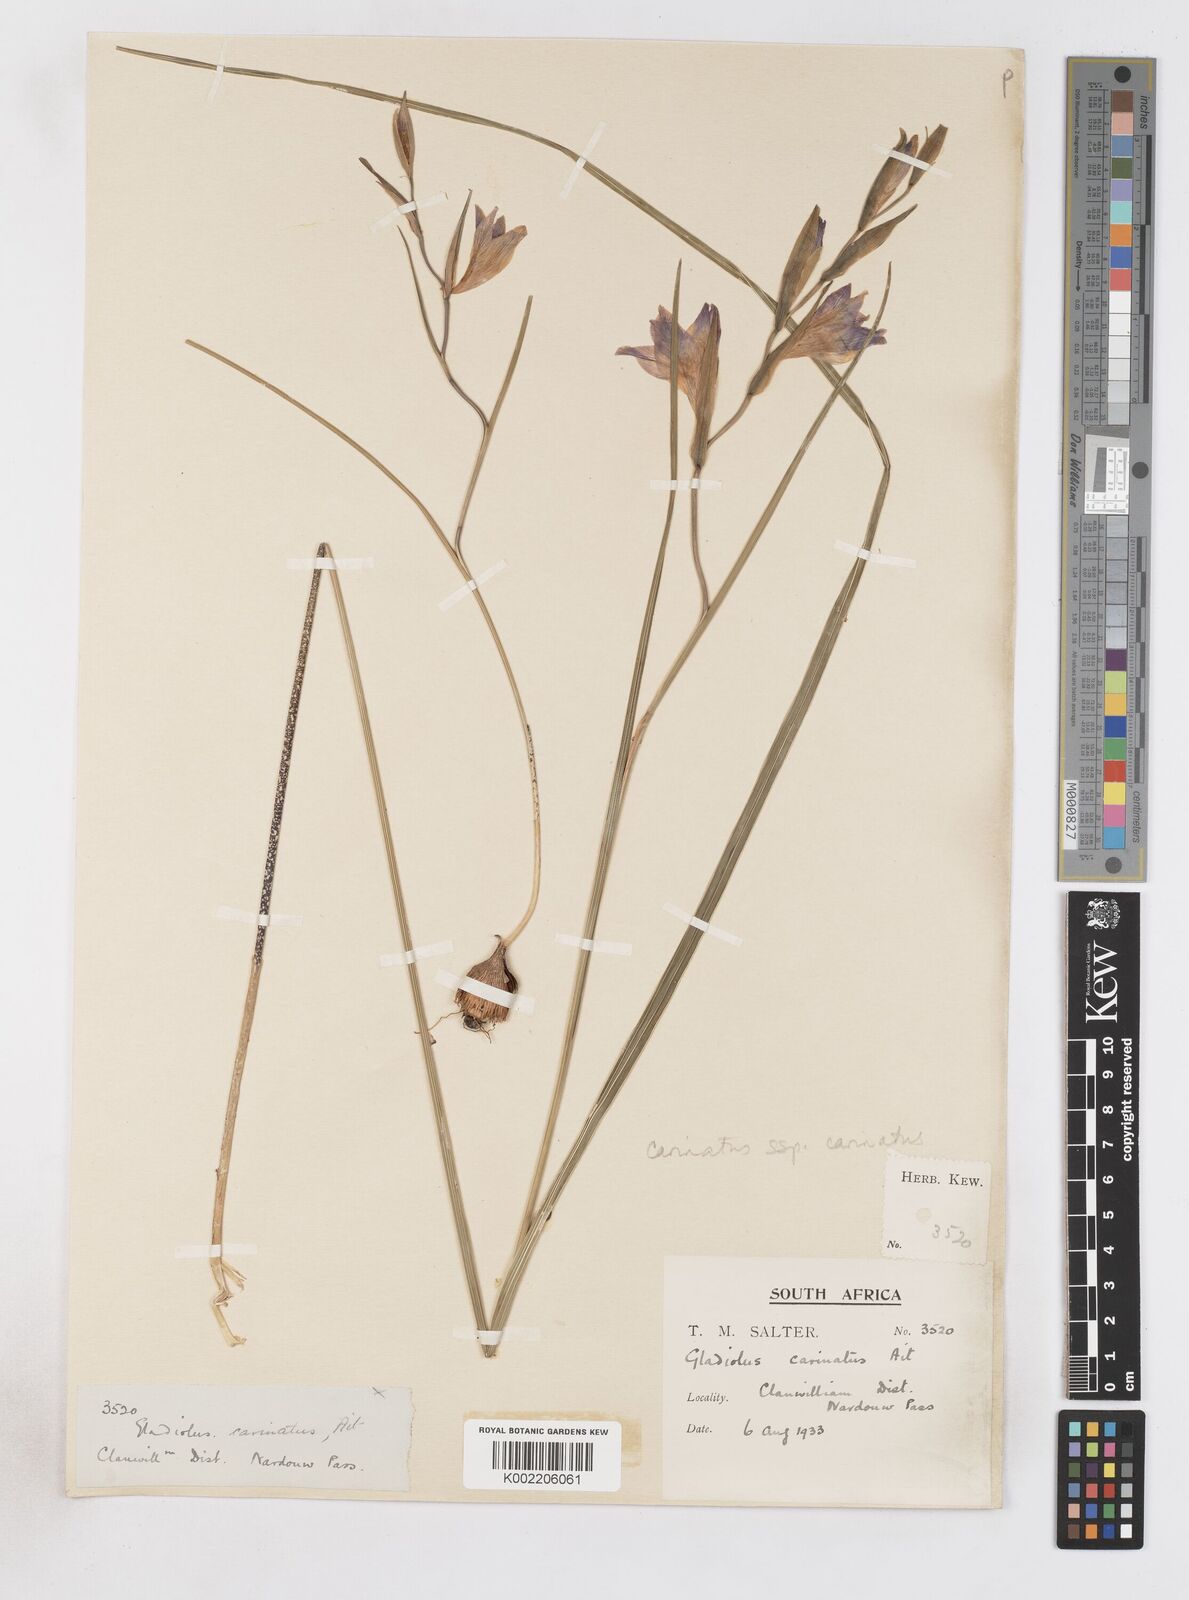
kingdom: Plantae
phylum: Tracheophyta
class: Liliopsida
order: Asparagales
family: Iridaceae
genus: Gladiolus
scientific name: Gladiolus carinatus
